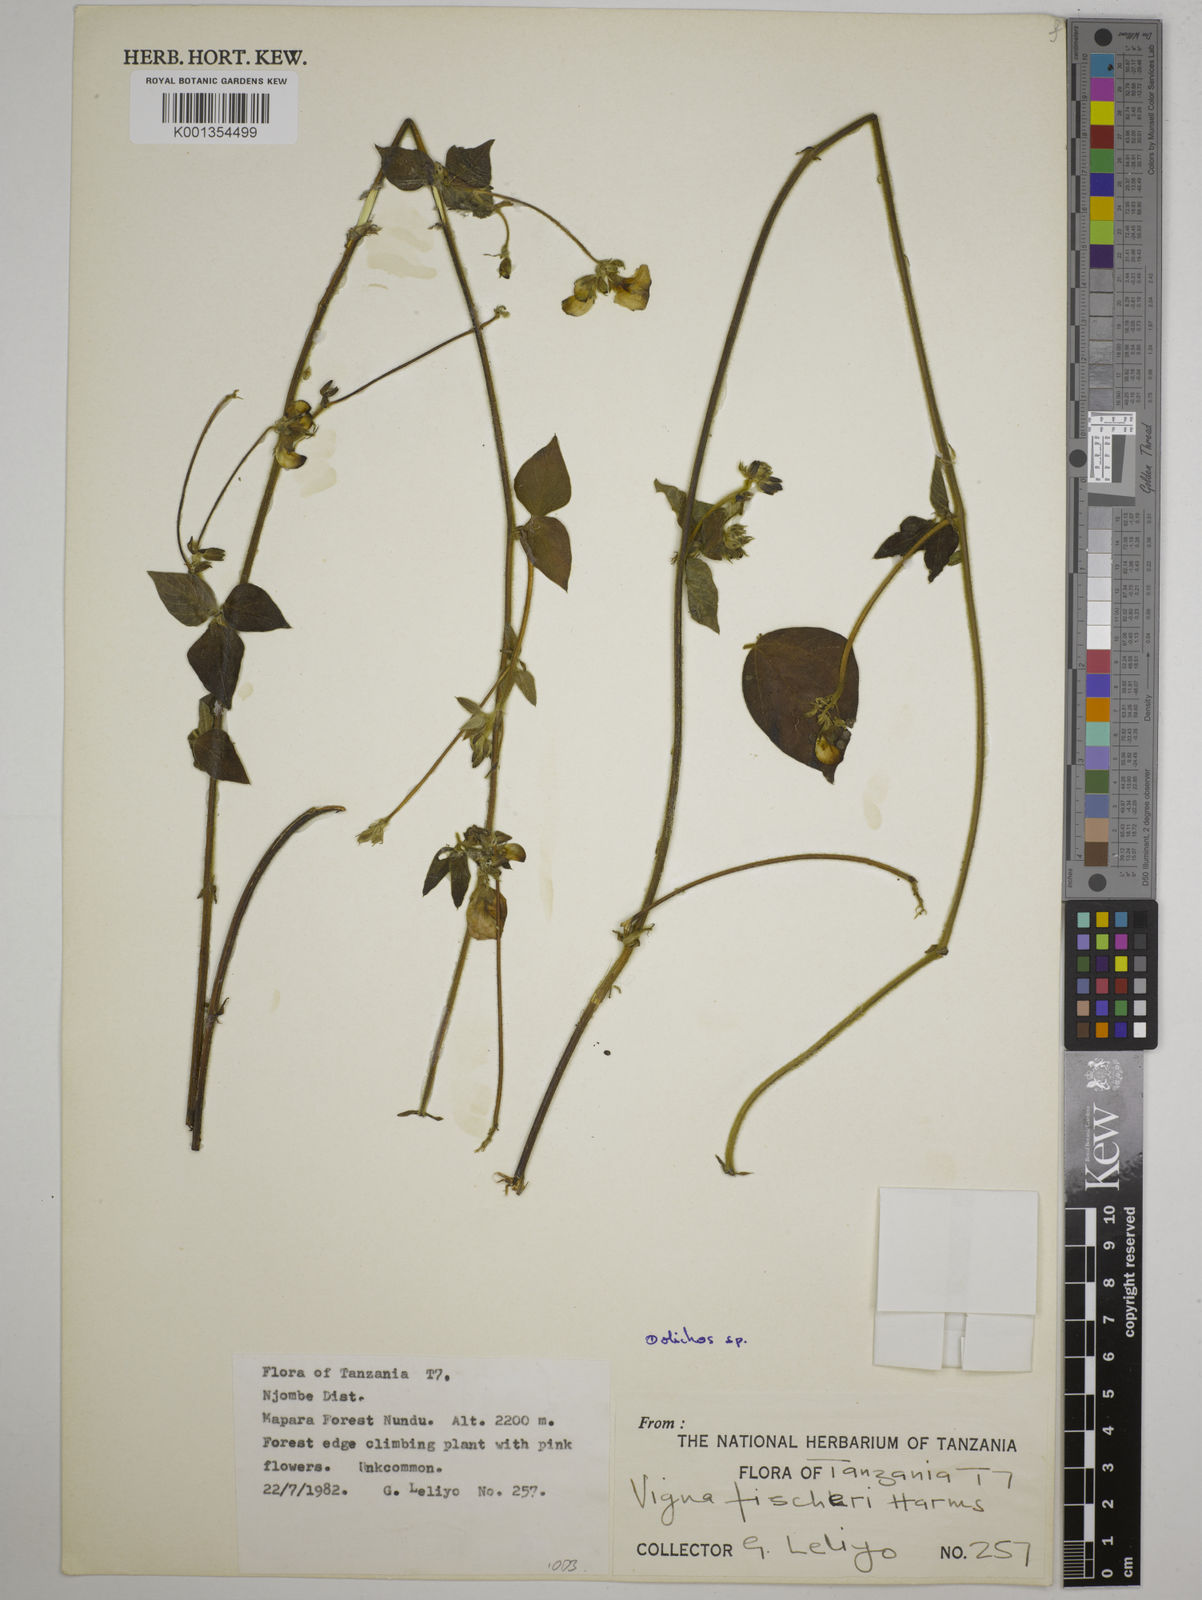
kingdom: Plantae
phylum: Tracheophyta
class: Magnoliopsida
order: Fabales
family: Fabaceae
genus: Dolichos
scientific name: Dolichos
